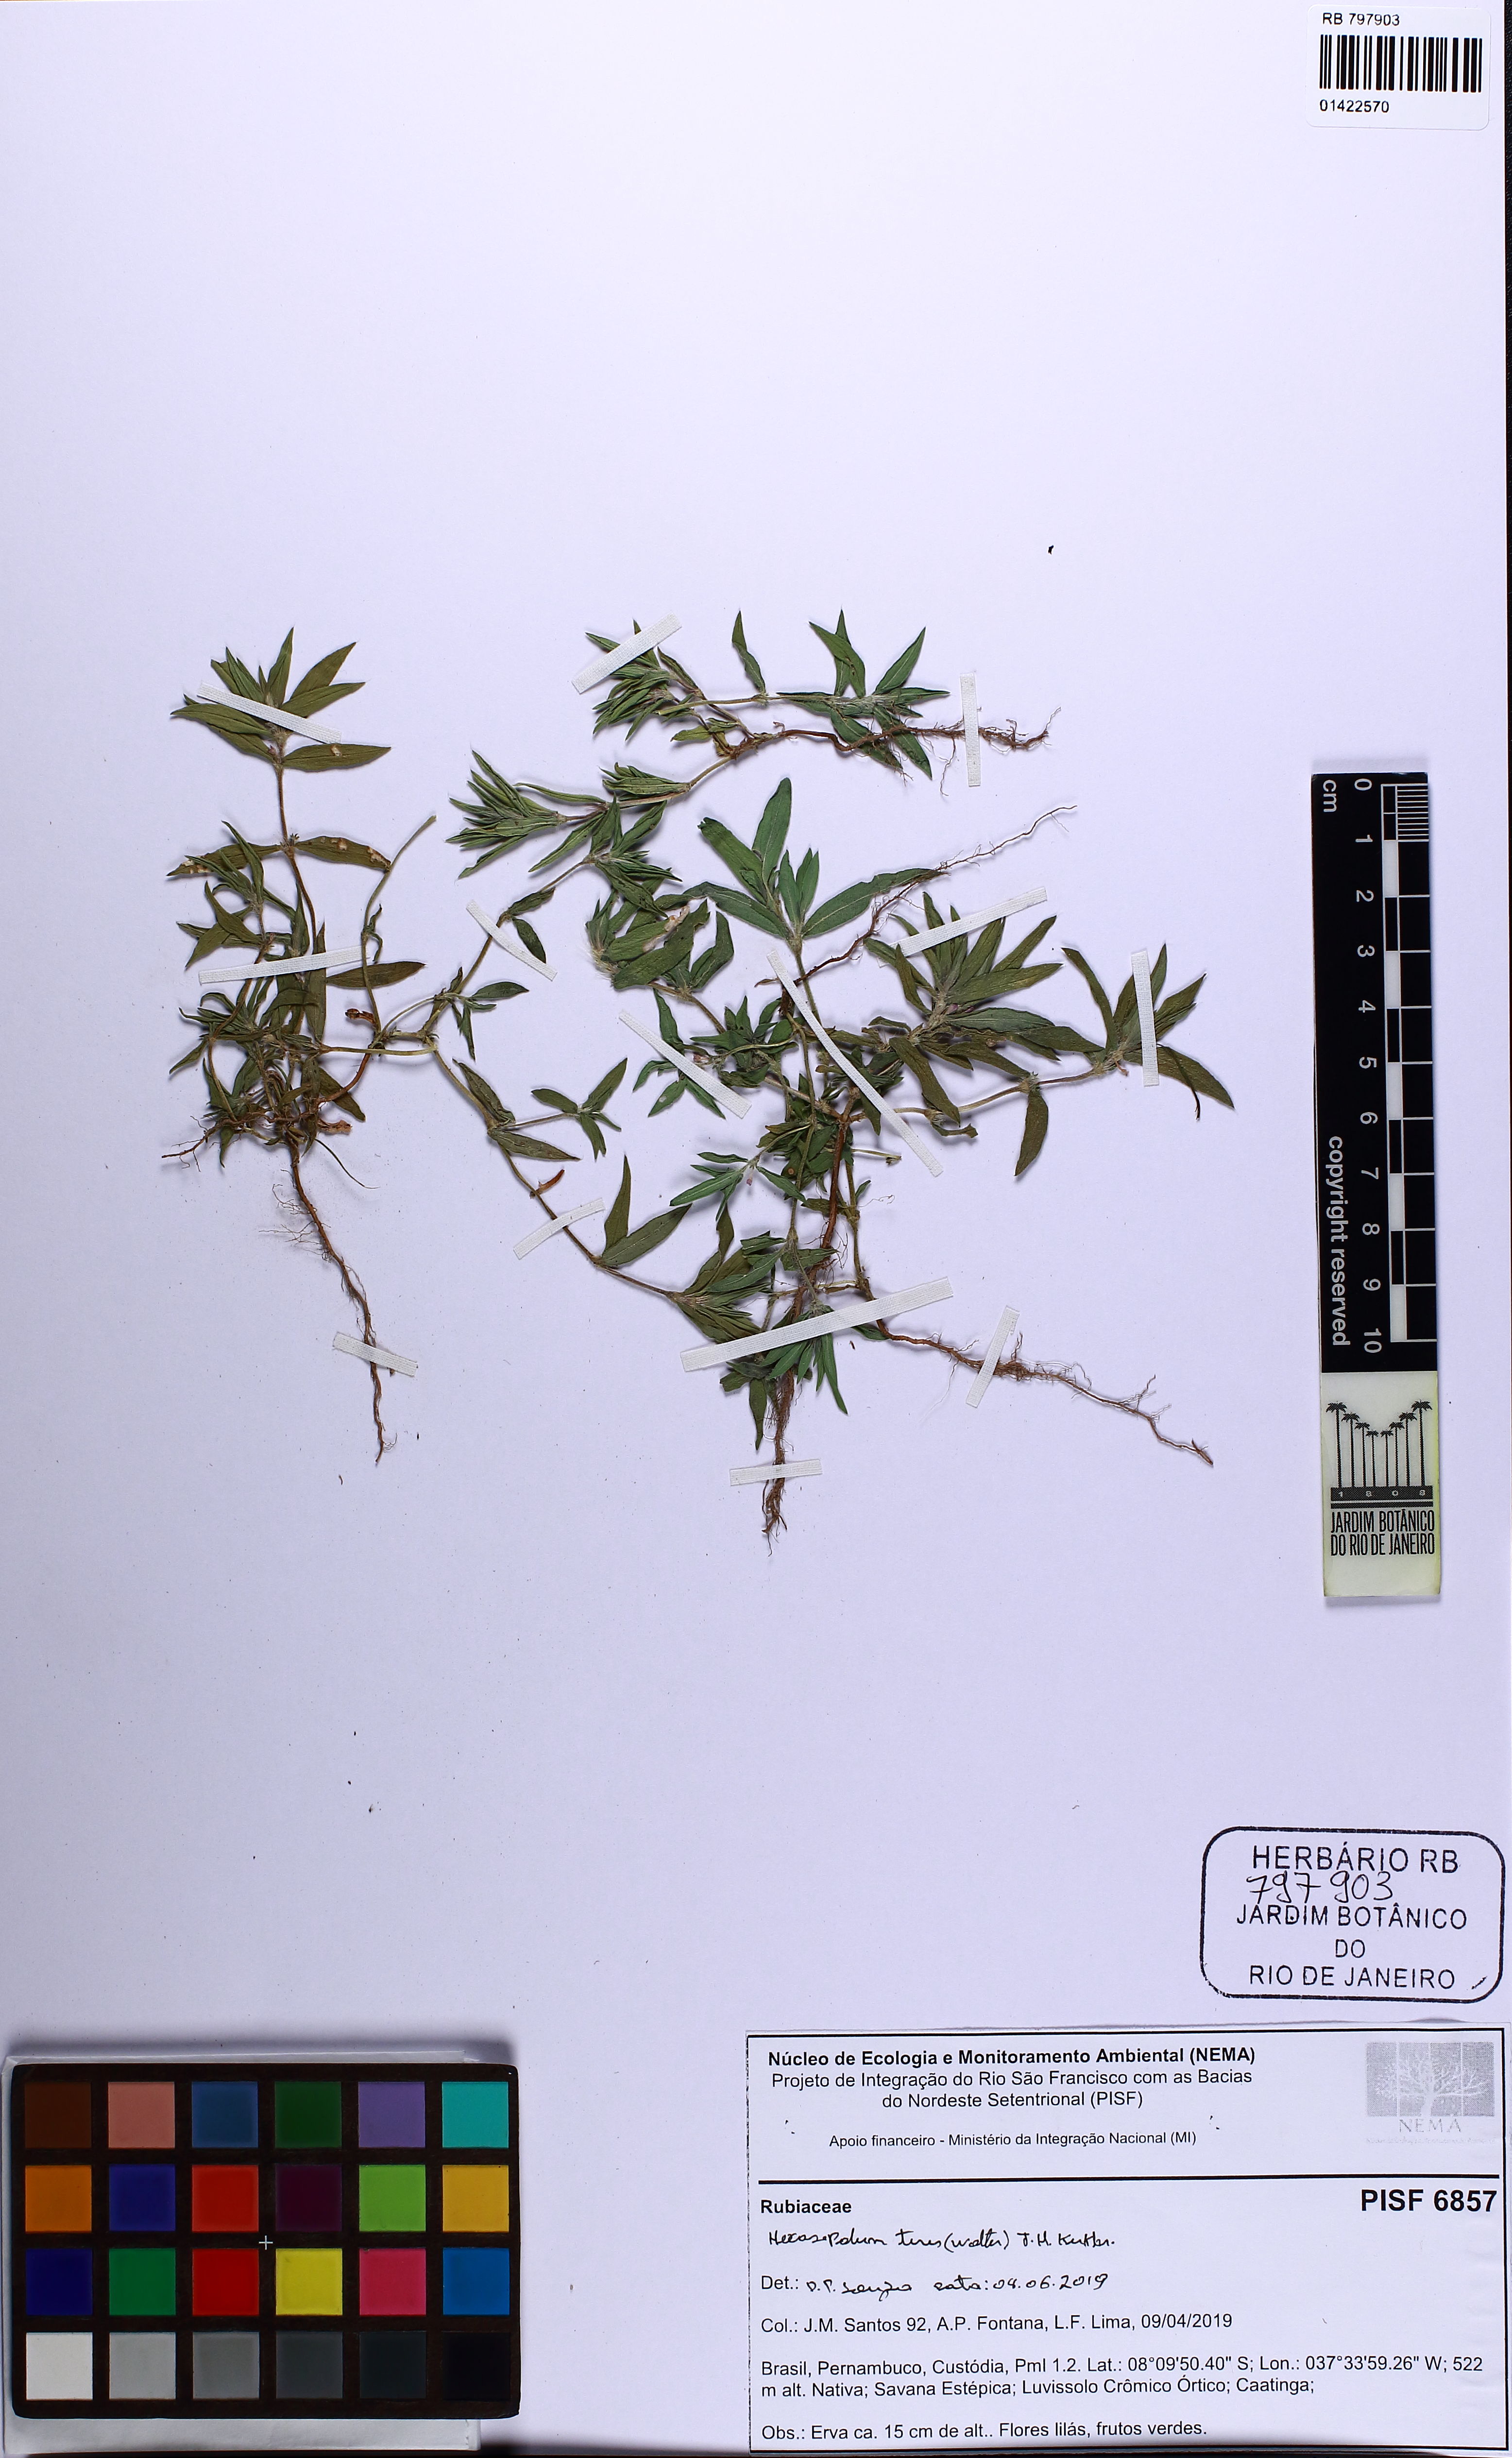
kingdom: Plantae
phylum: Tracheophyta
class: Magnoliopsida
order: Gentianales
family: Rubiaceae
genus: Hexasepalum
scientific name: Hexasepalum teres
